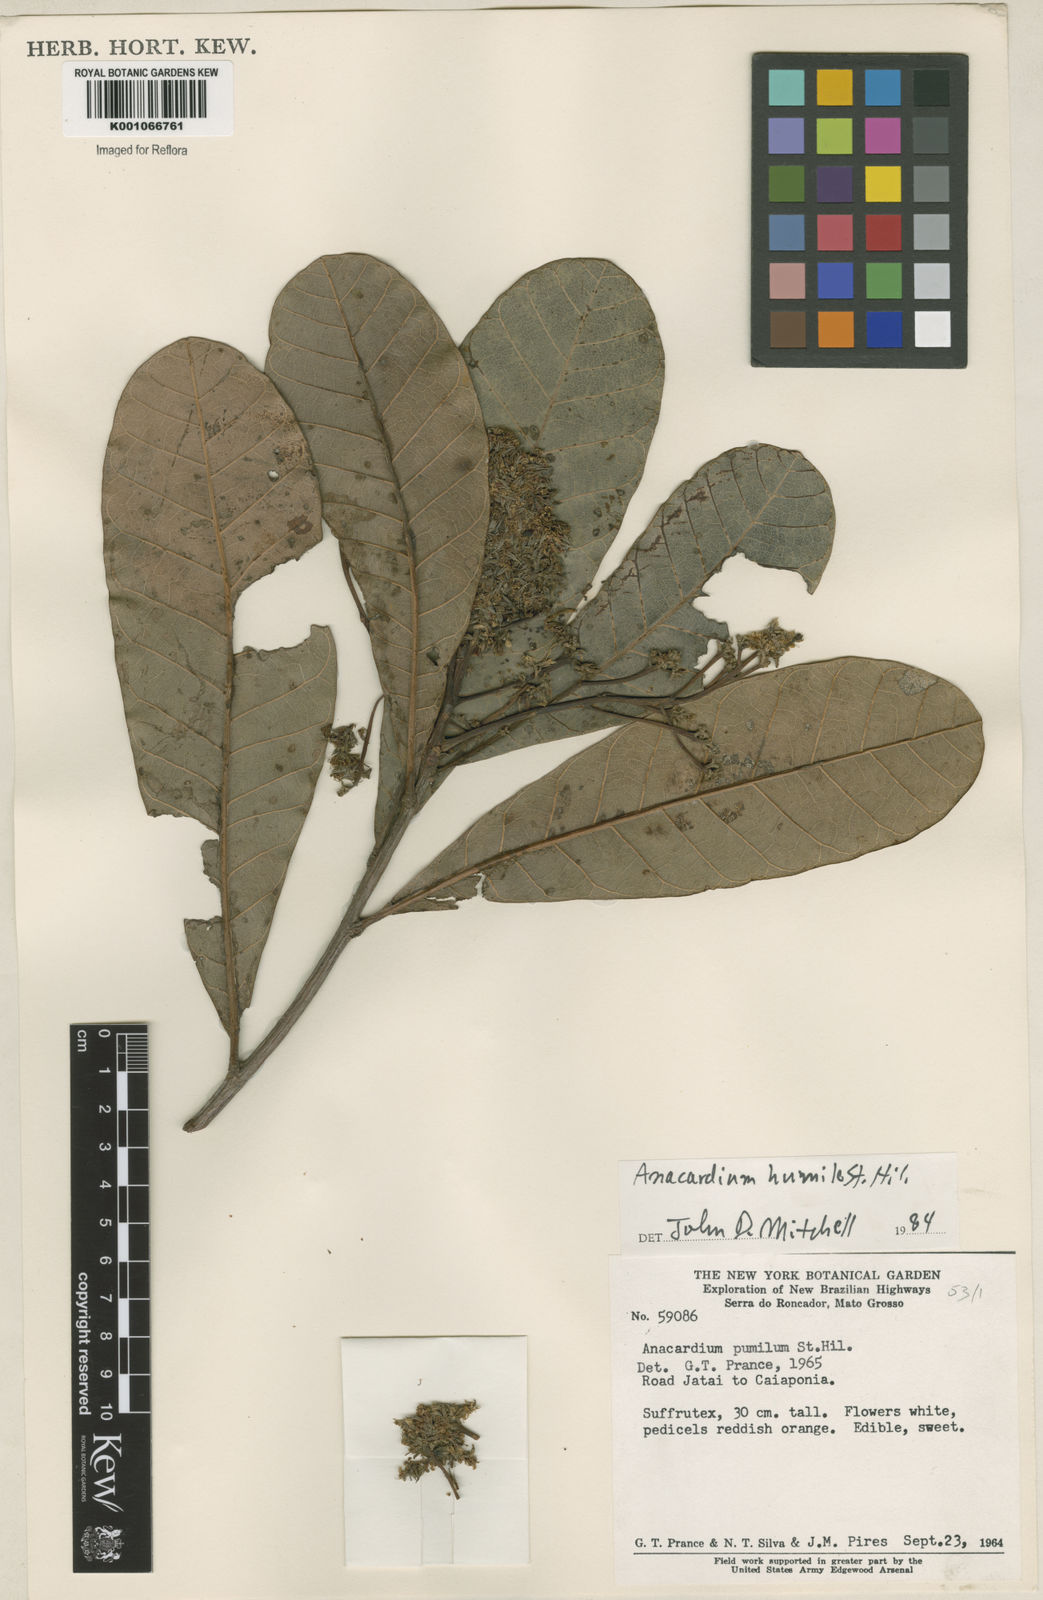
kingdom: Plantae
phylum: Tracheophyta
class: Magnoliopsida
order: Sapindales
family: Anacardiaceae
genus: Anacardium
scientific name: Anacardium humile
